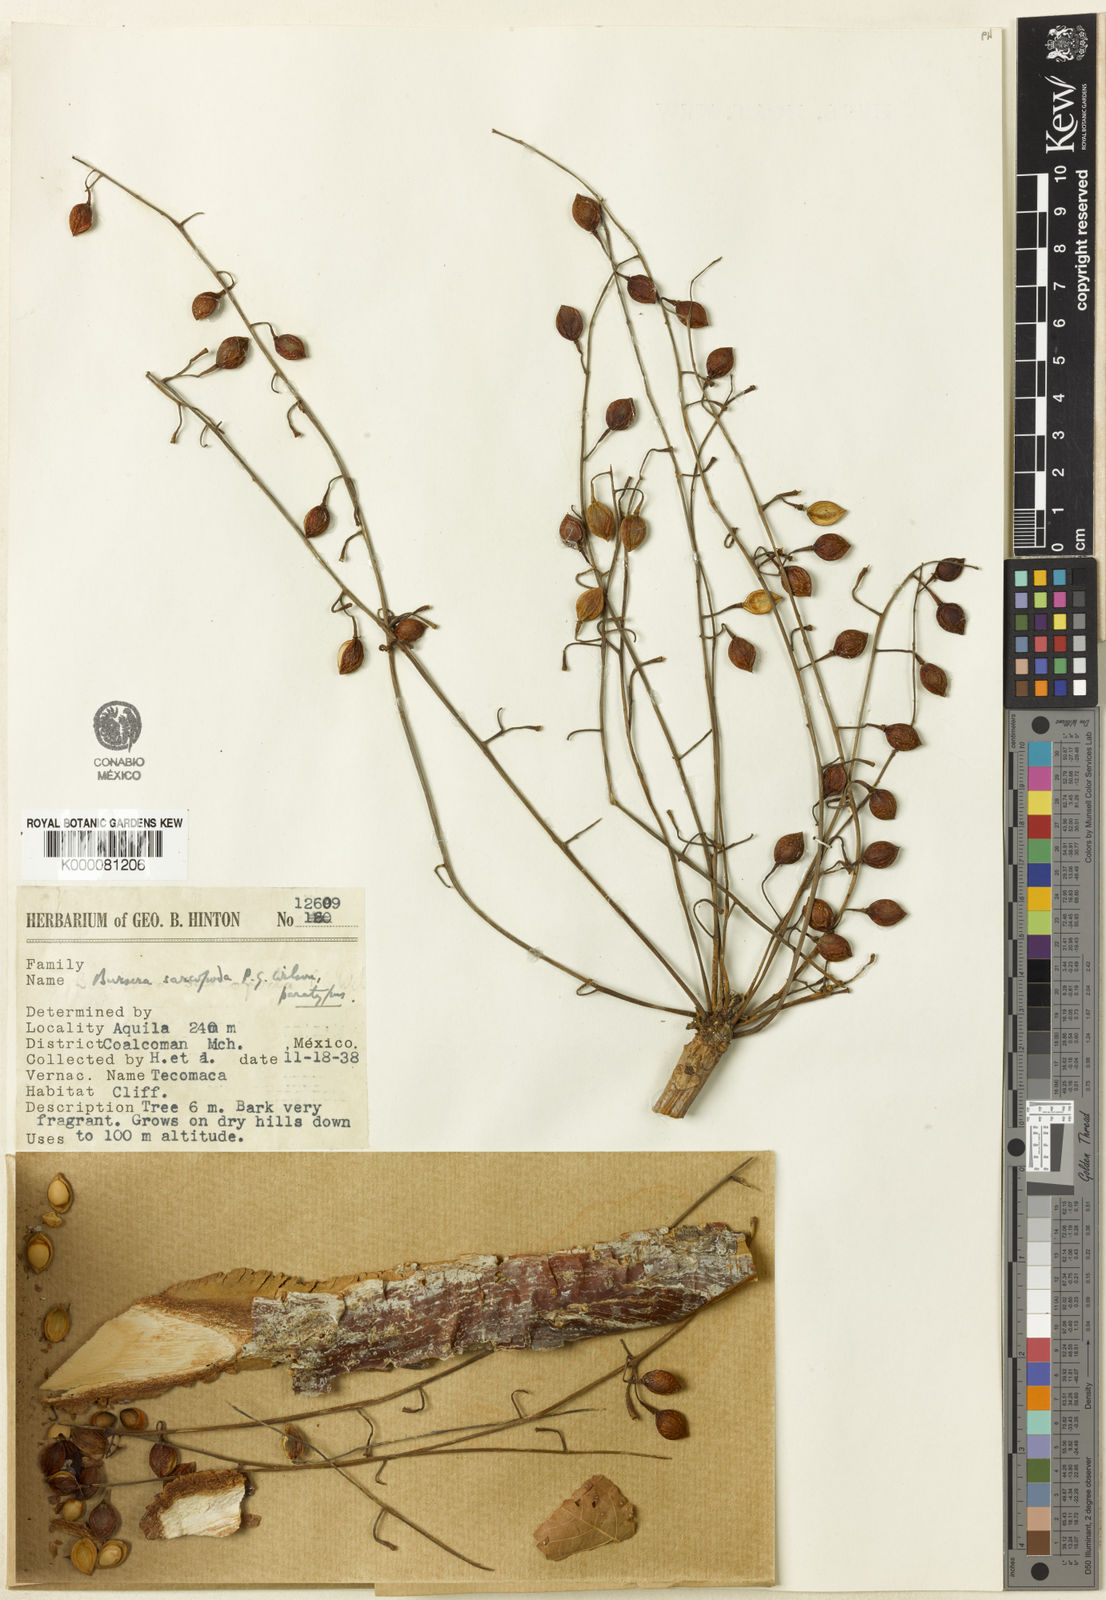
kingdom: Plantae
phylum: Tracheophyta
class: Magnoliopsida
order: Sapindales
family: Burseraceae
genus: Bursera
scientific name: Bursera sarcopoda
